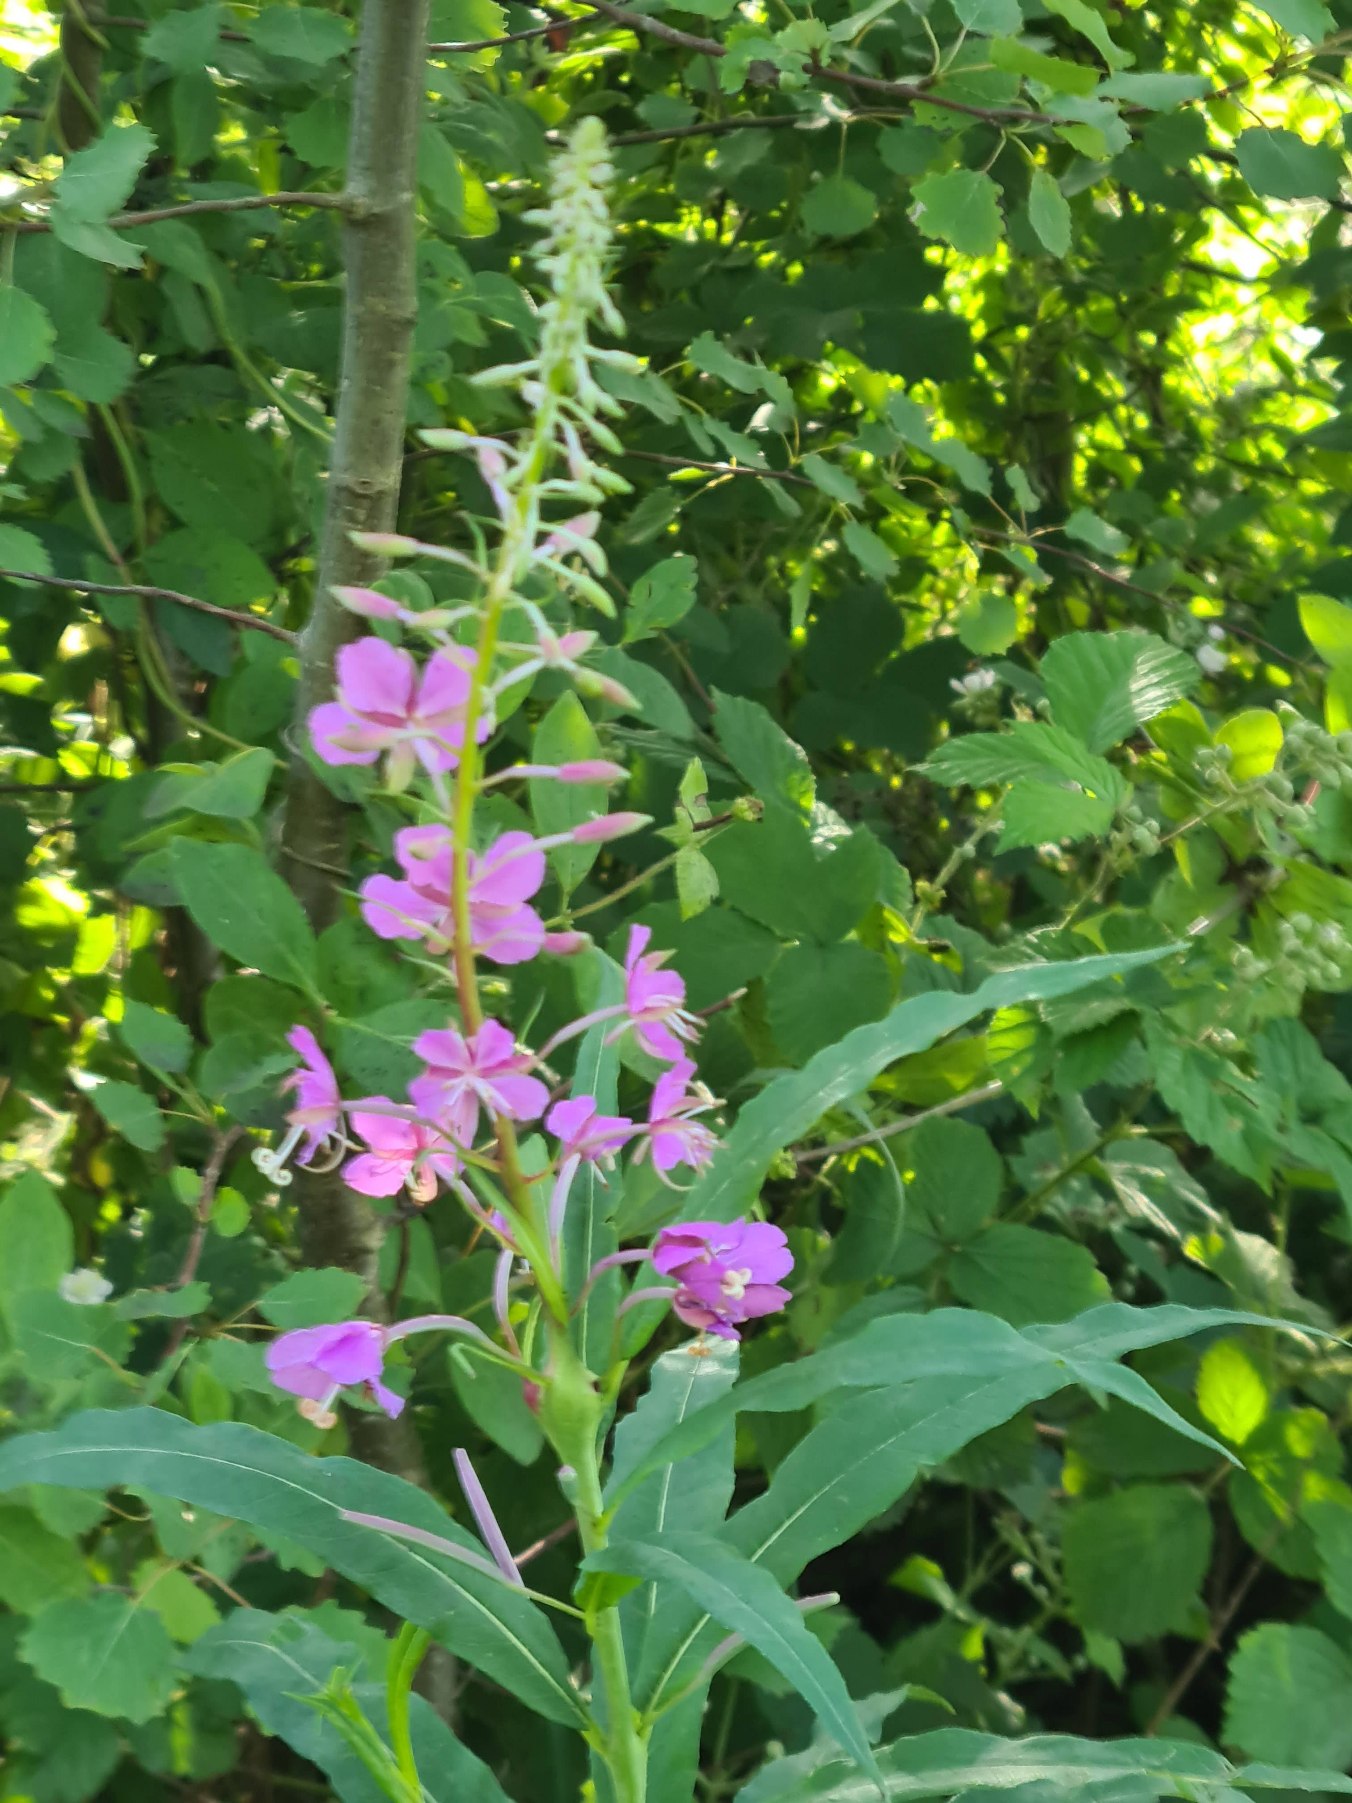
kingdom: Plantae
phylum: Tracheophyta
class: Magnoliopsida
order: Myrtales
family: Onagraceae
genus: Chamaenerion
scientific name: Chamaenerion angustifolium
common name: Gederams
